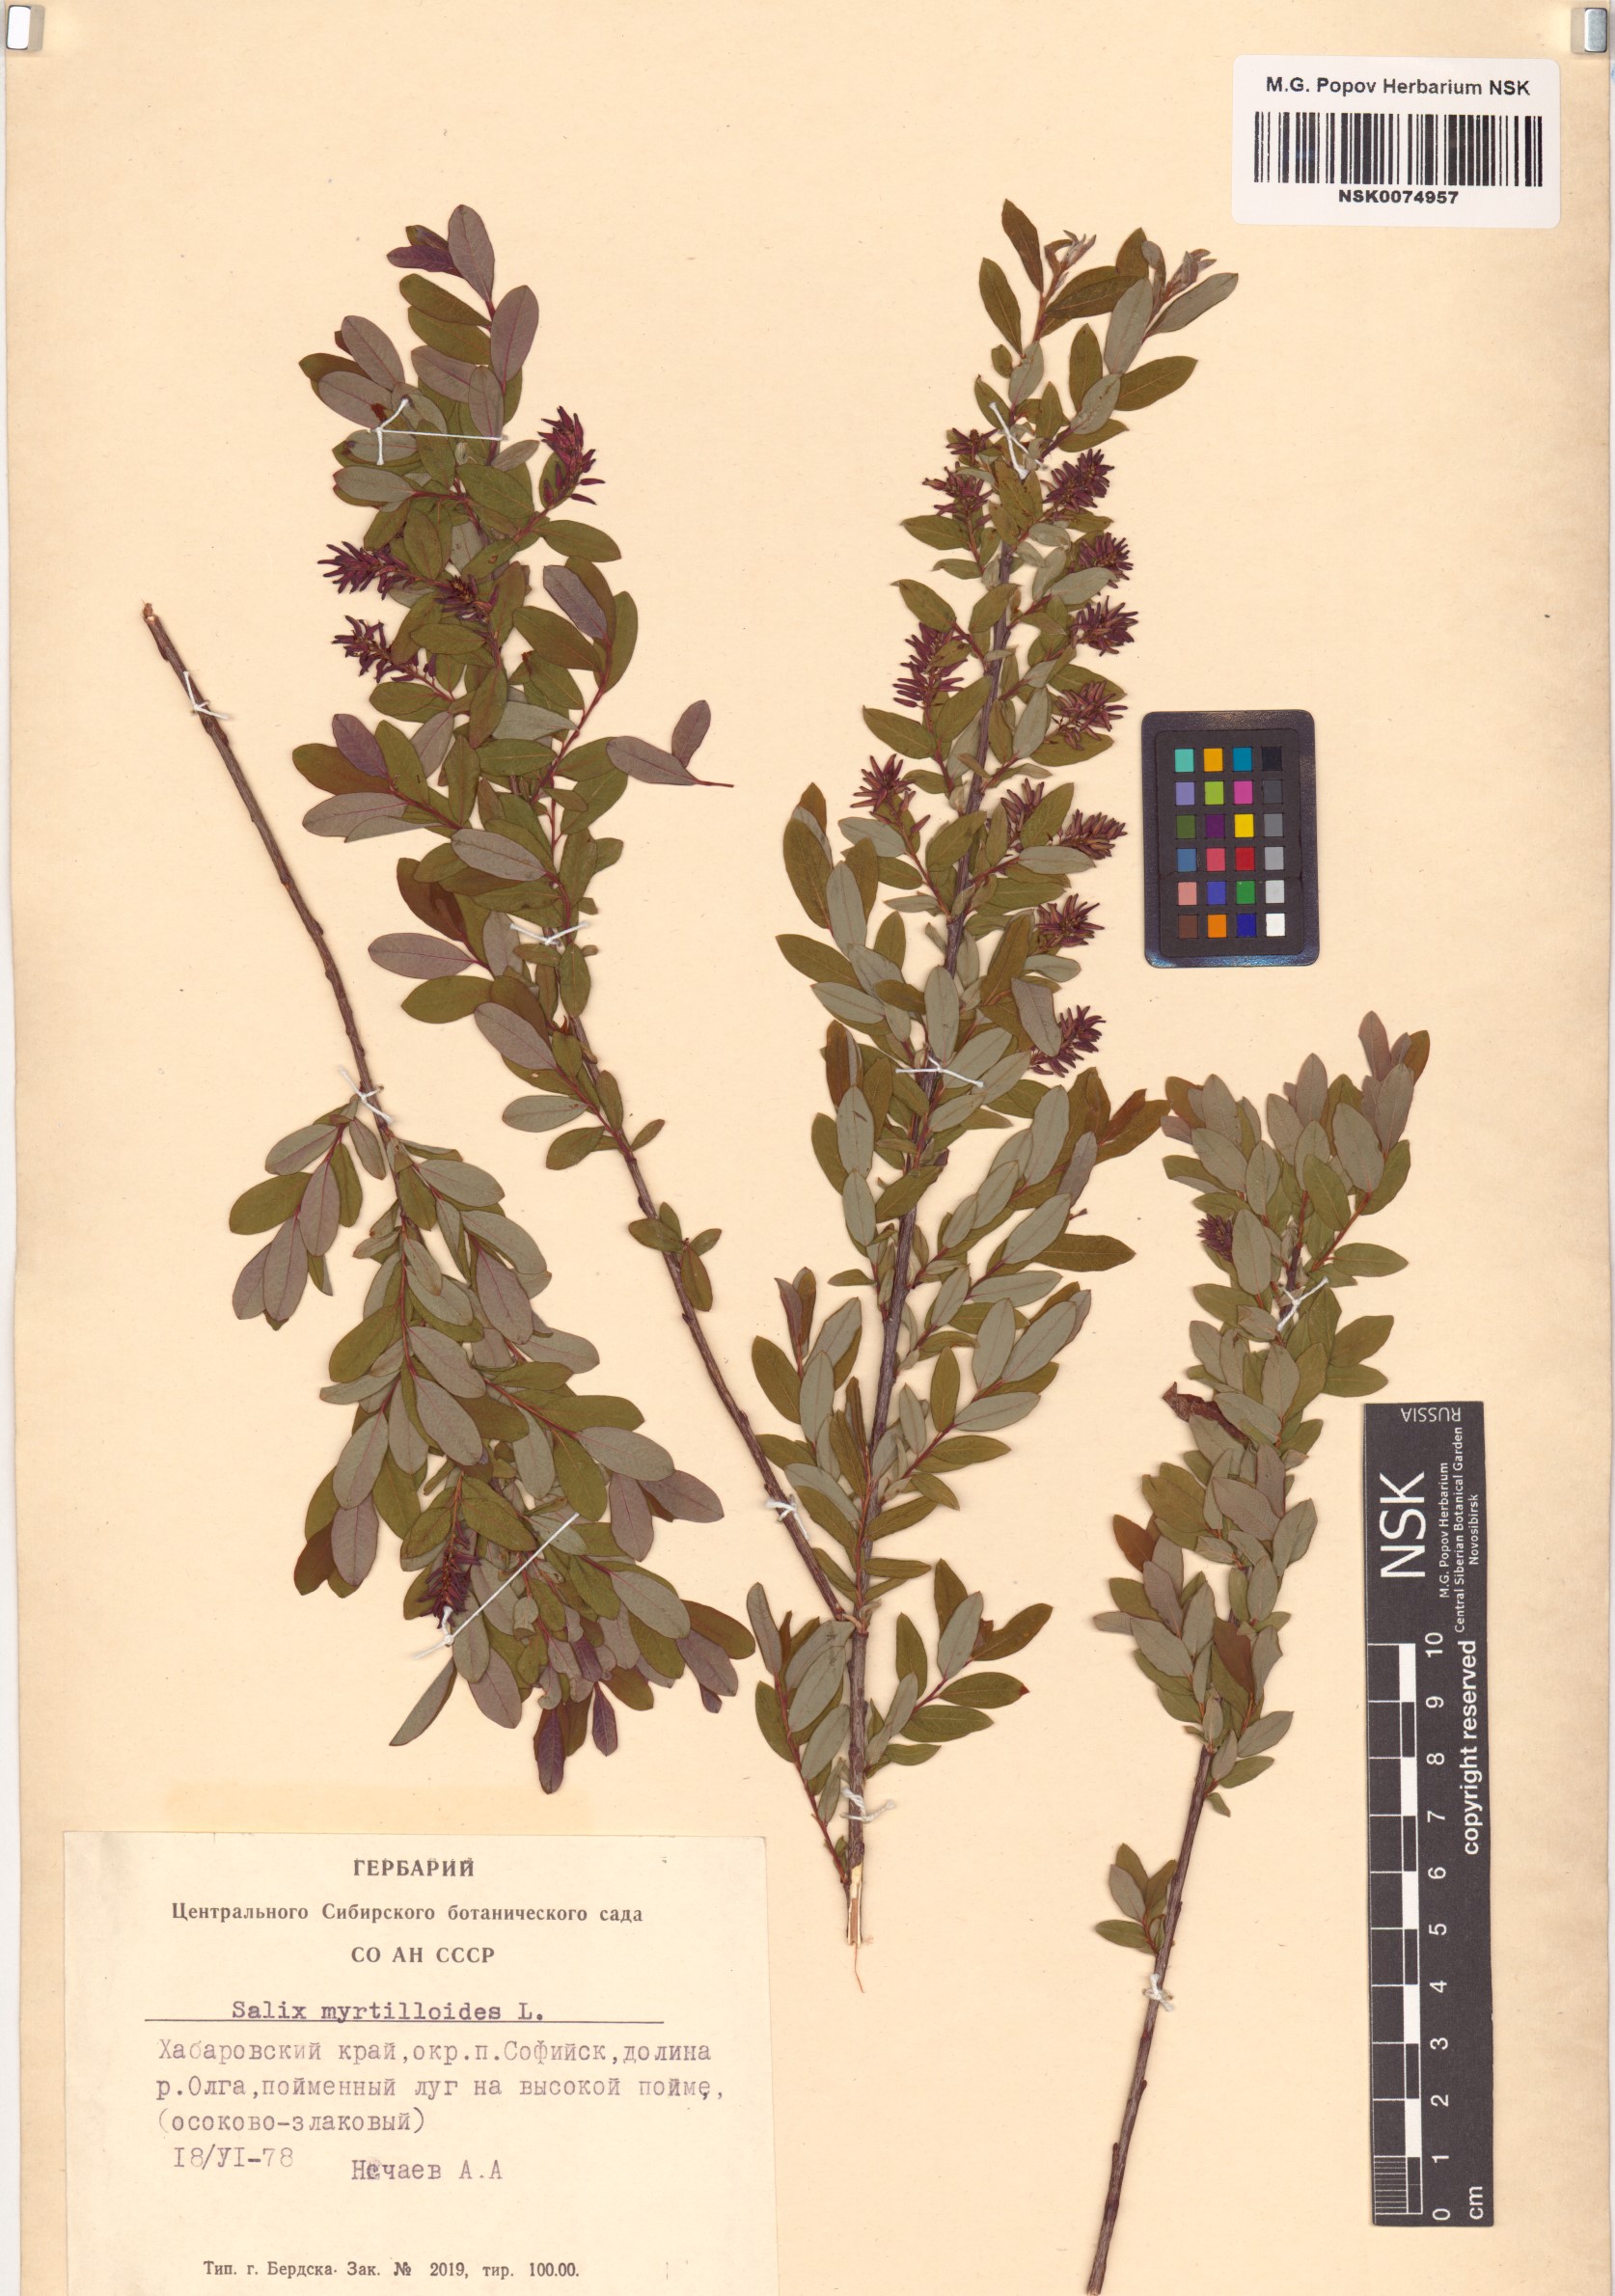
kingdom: Plantae
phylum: Tracheophyta
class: Magnoliopsida
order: Malpighiales
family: Salicaceae
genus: Salix
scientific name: Salix myrtilloides
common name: Myrtle-leaved willow
